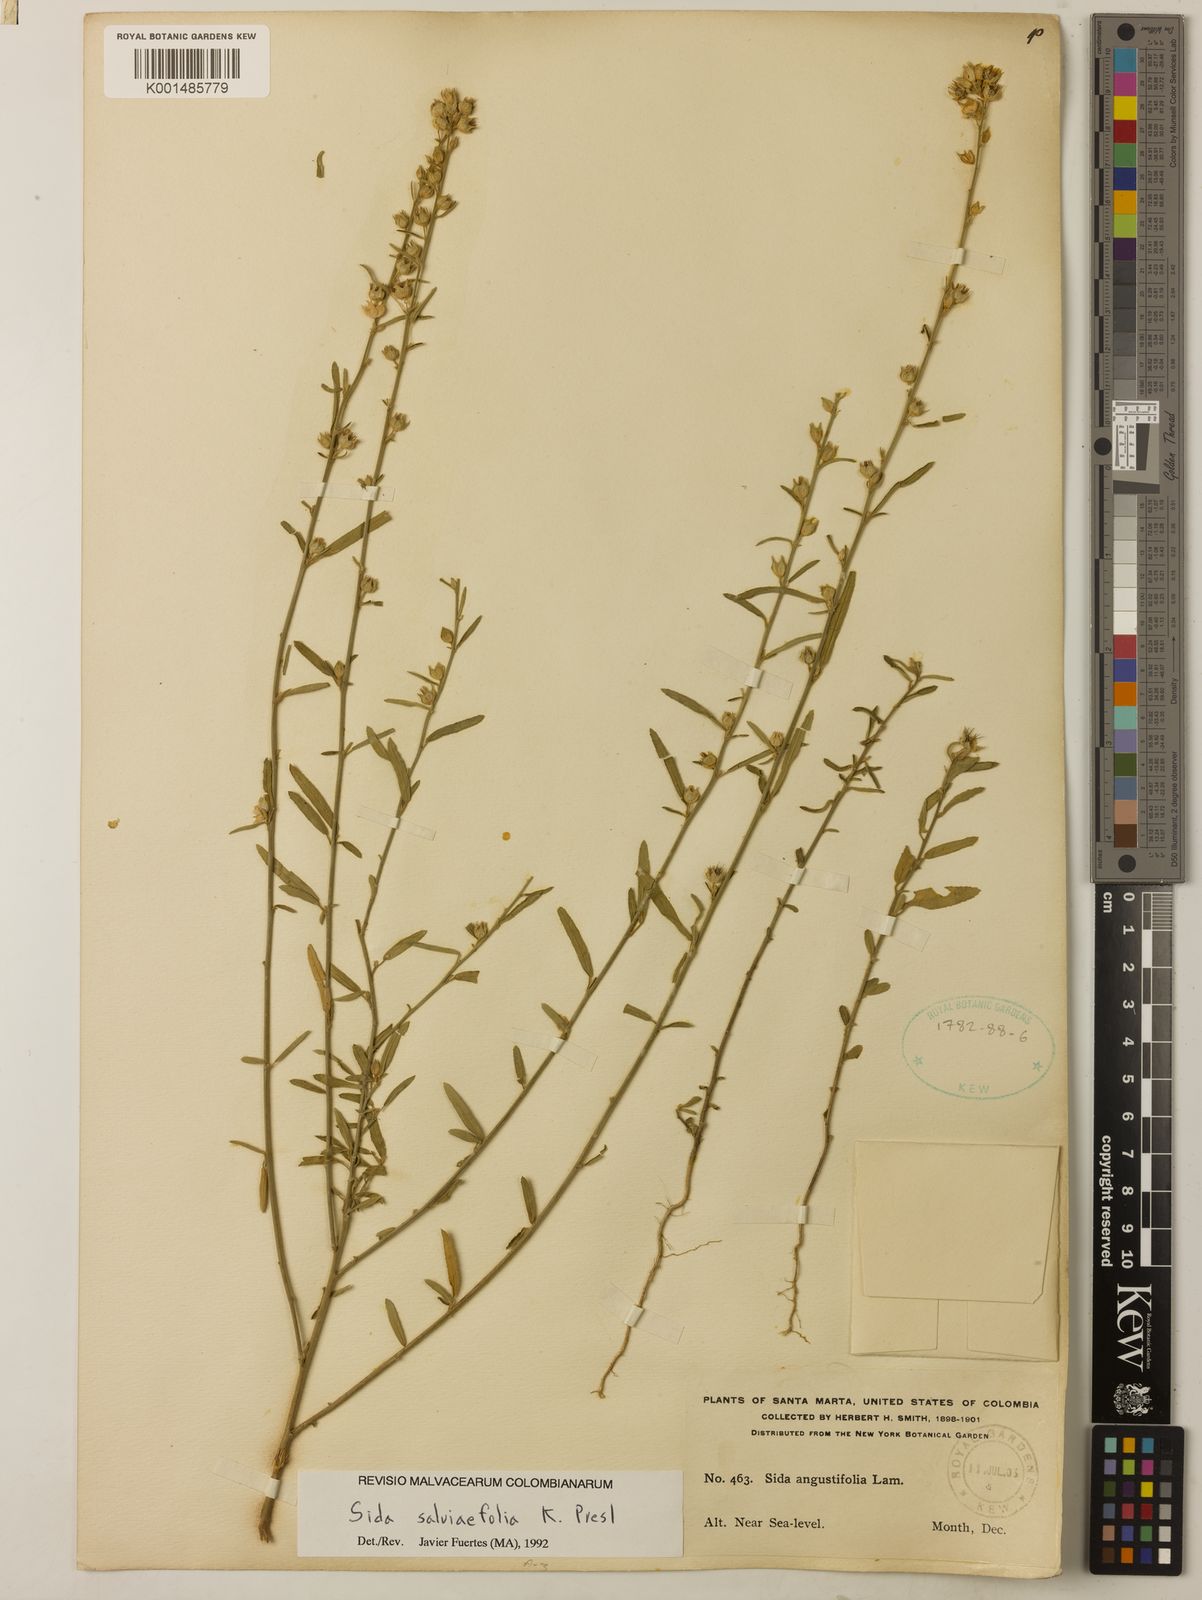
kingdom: Plantae
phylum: Tracheophyta
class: Magnoliopsida
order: Malvales
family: Malvaceae
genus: Sida
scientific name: Sida salviifolia
